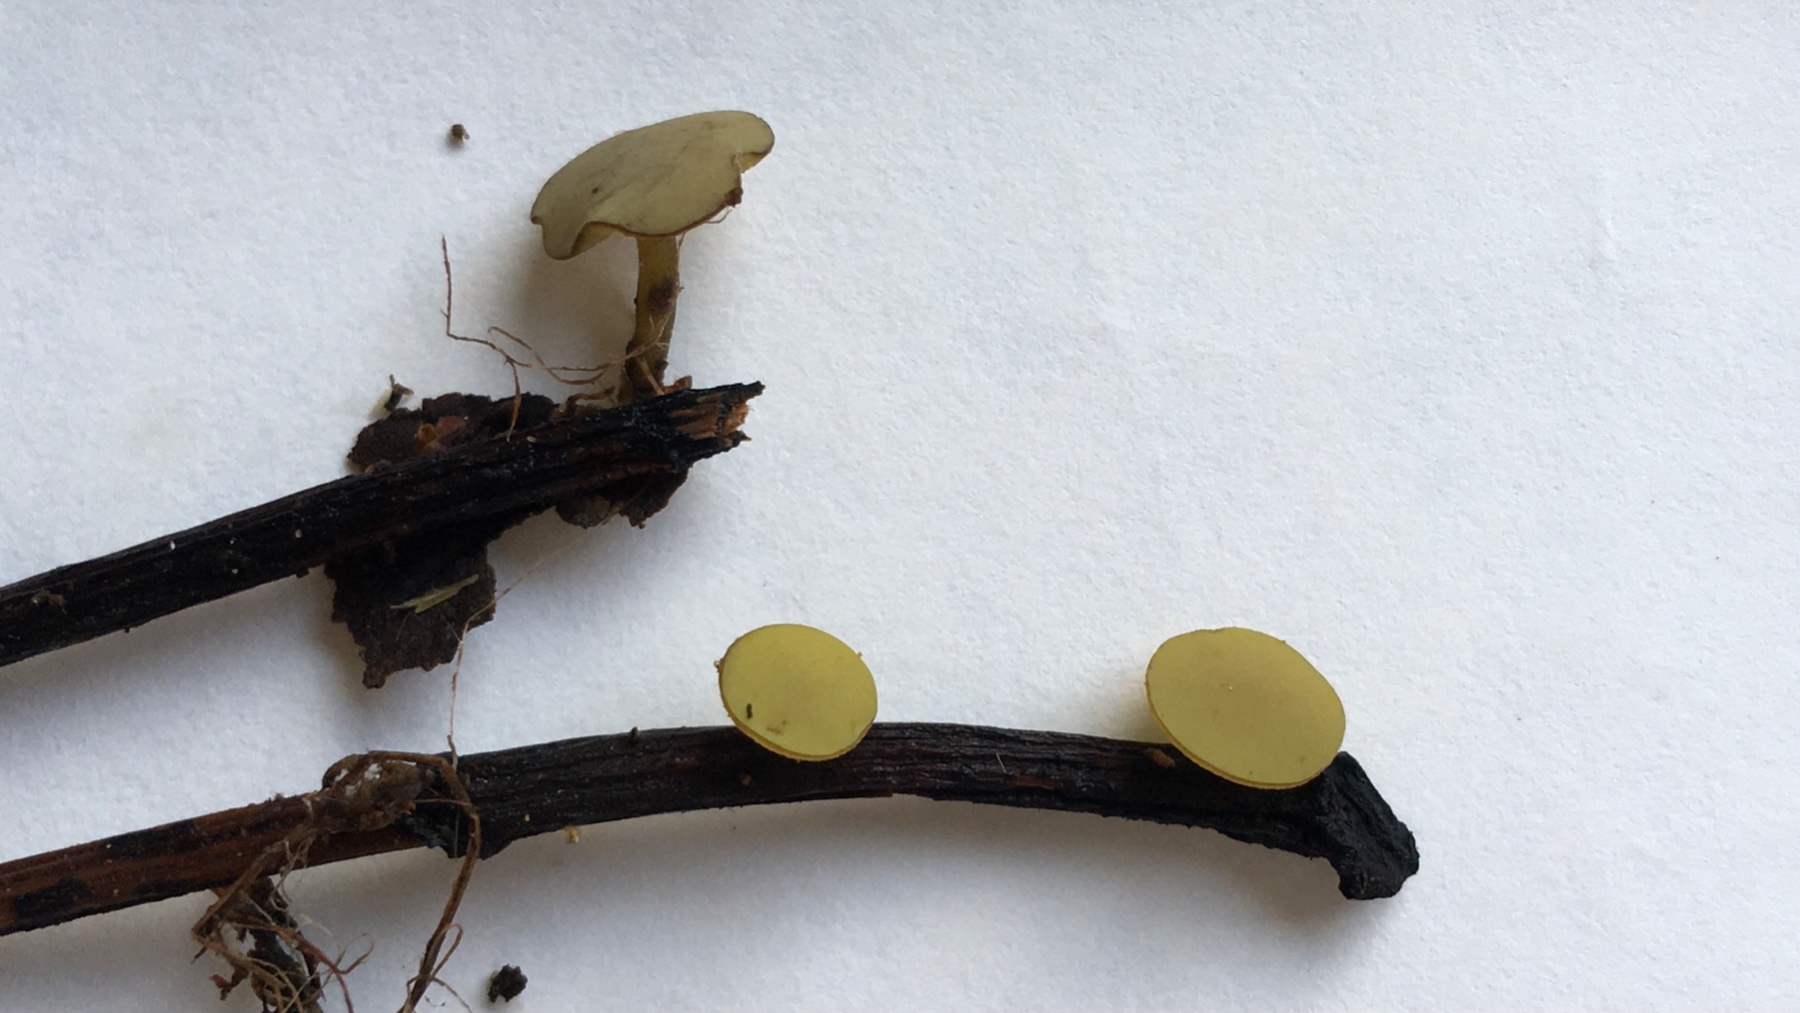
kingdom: Fungi
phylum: Ascomycota
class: Leotiomycetes
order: Helotiales
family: Rutstroemiaceae
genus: Lanzia
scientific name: Lanzia luteovirescens
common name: olivengul brunskive
